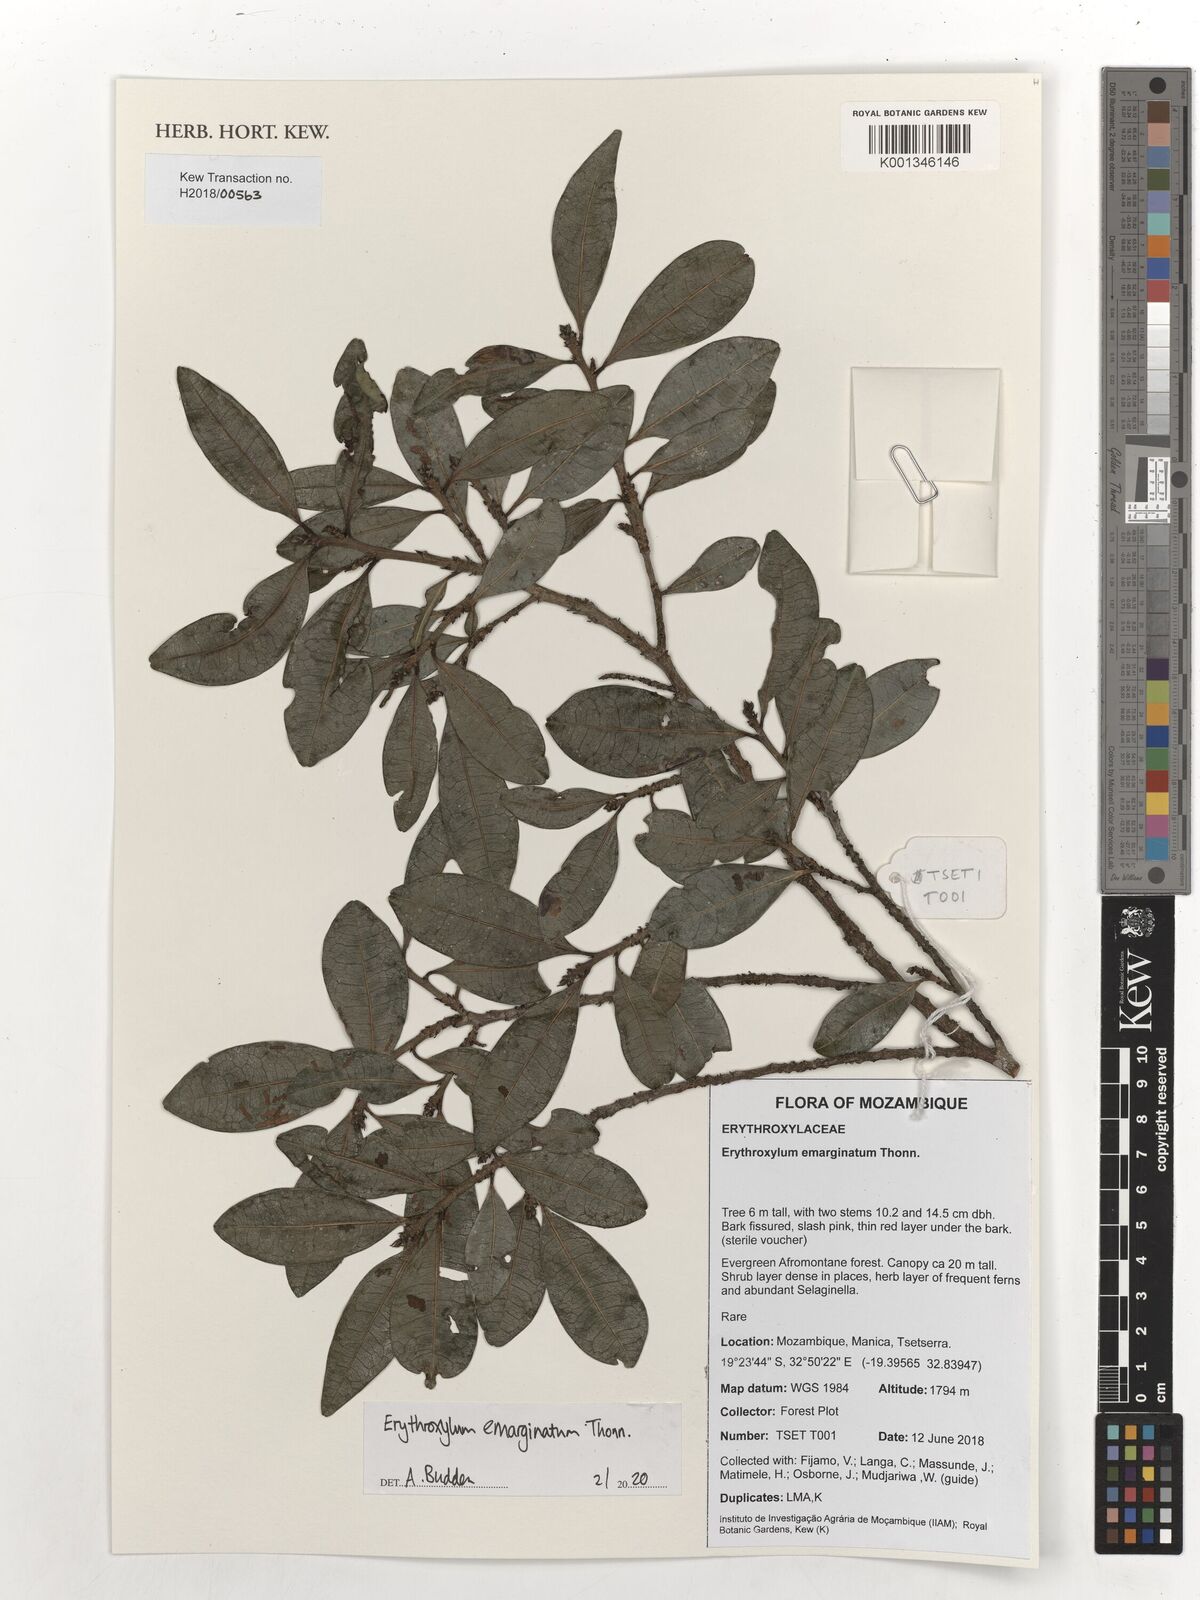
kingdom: Plantae
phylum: Tracheophyta
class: Magnoliopsida
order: Malpighiales
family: Erythroxylaceae
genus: Erythroxylum
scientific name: Erythroxylum emarginatum
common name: African coca-tree
